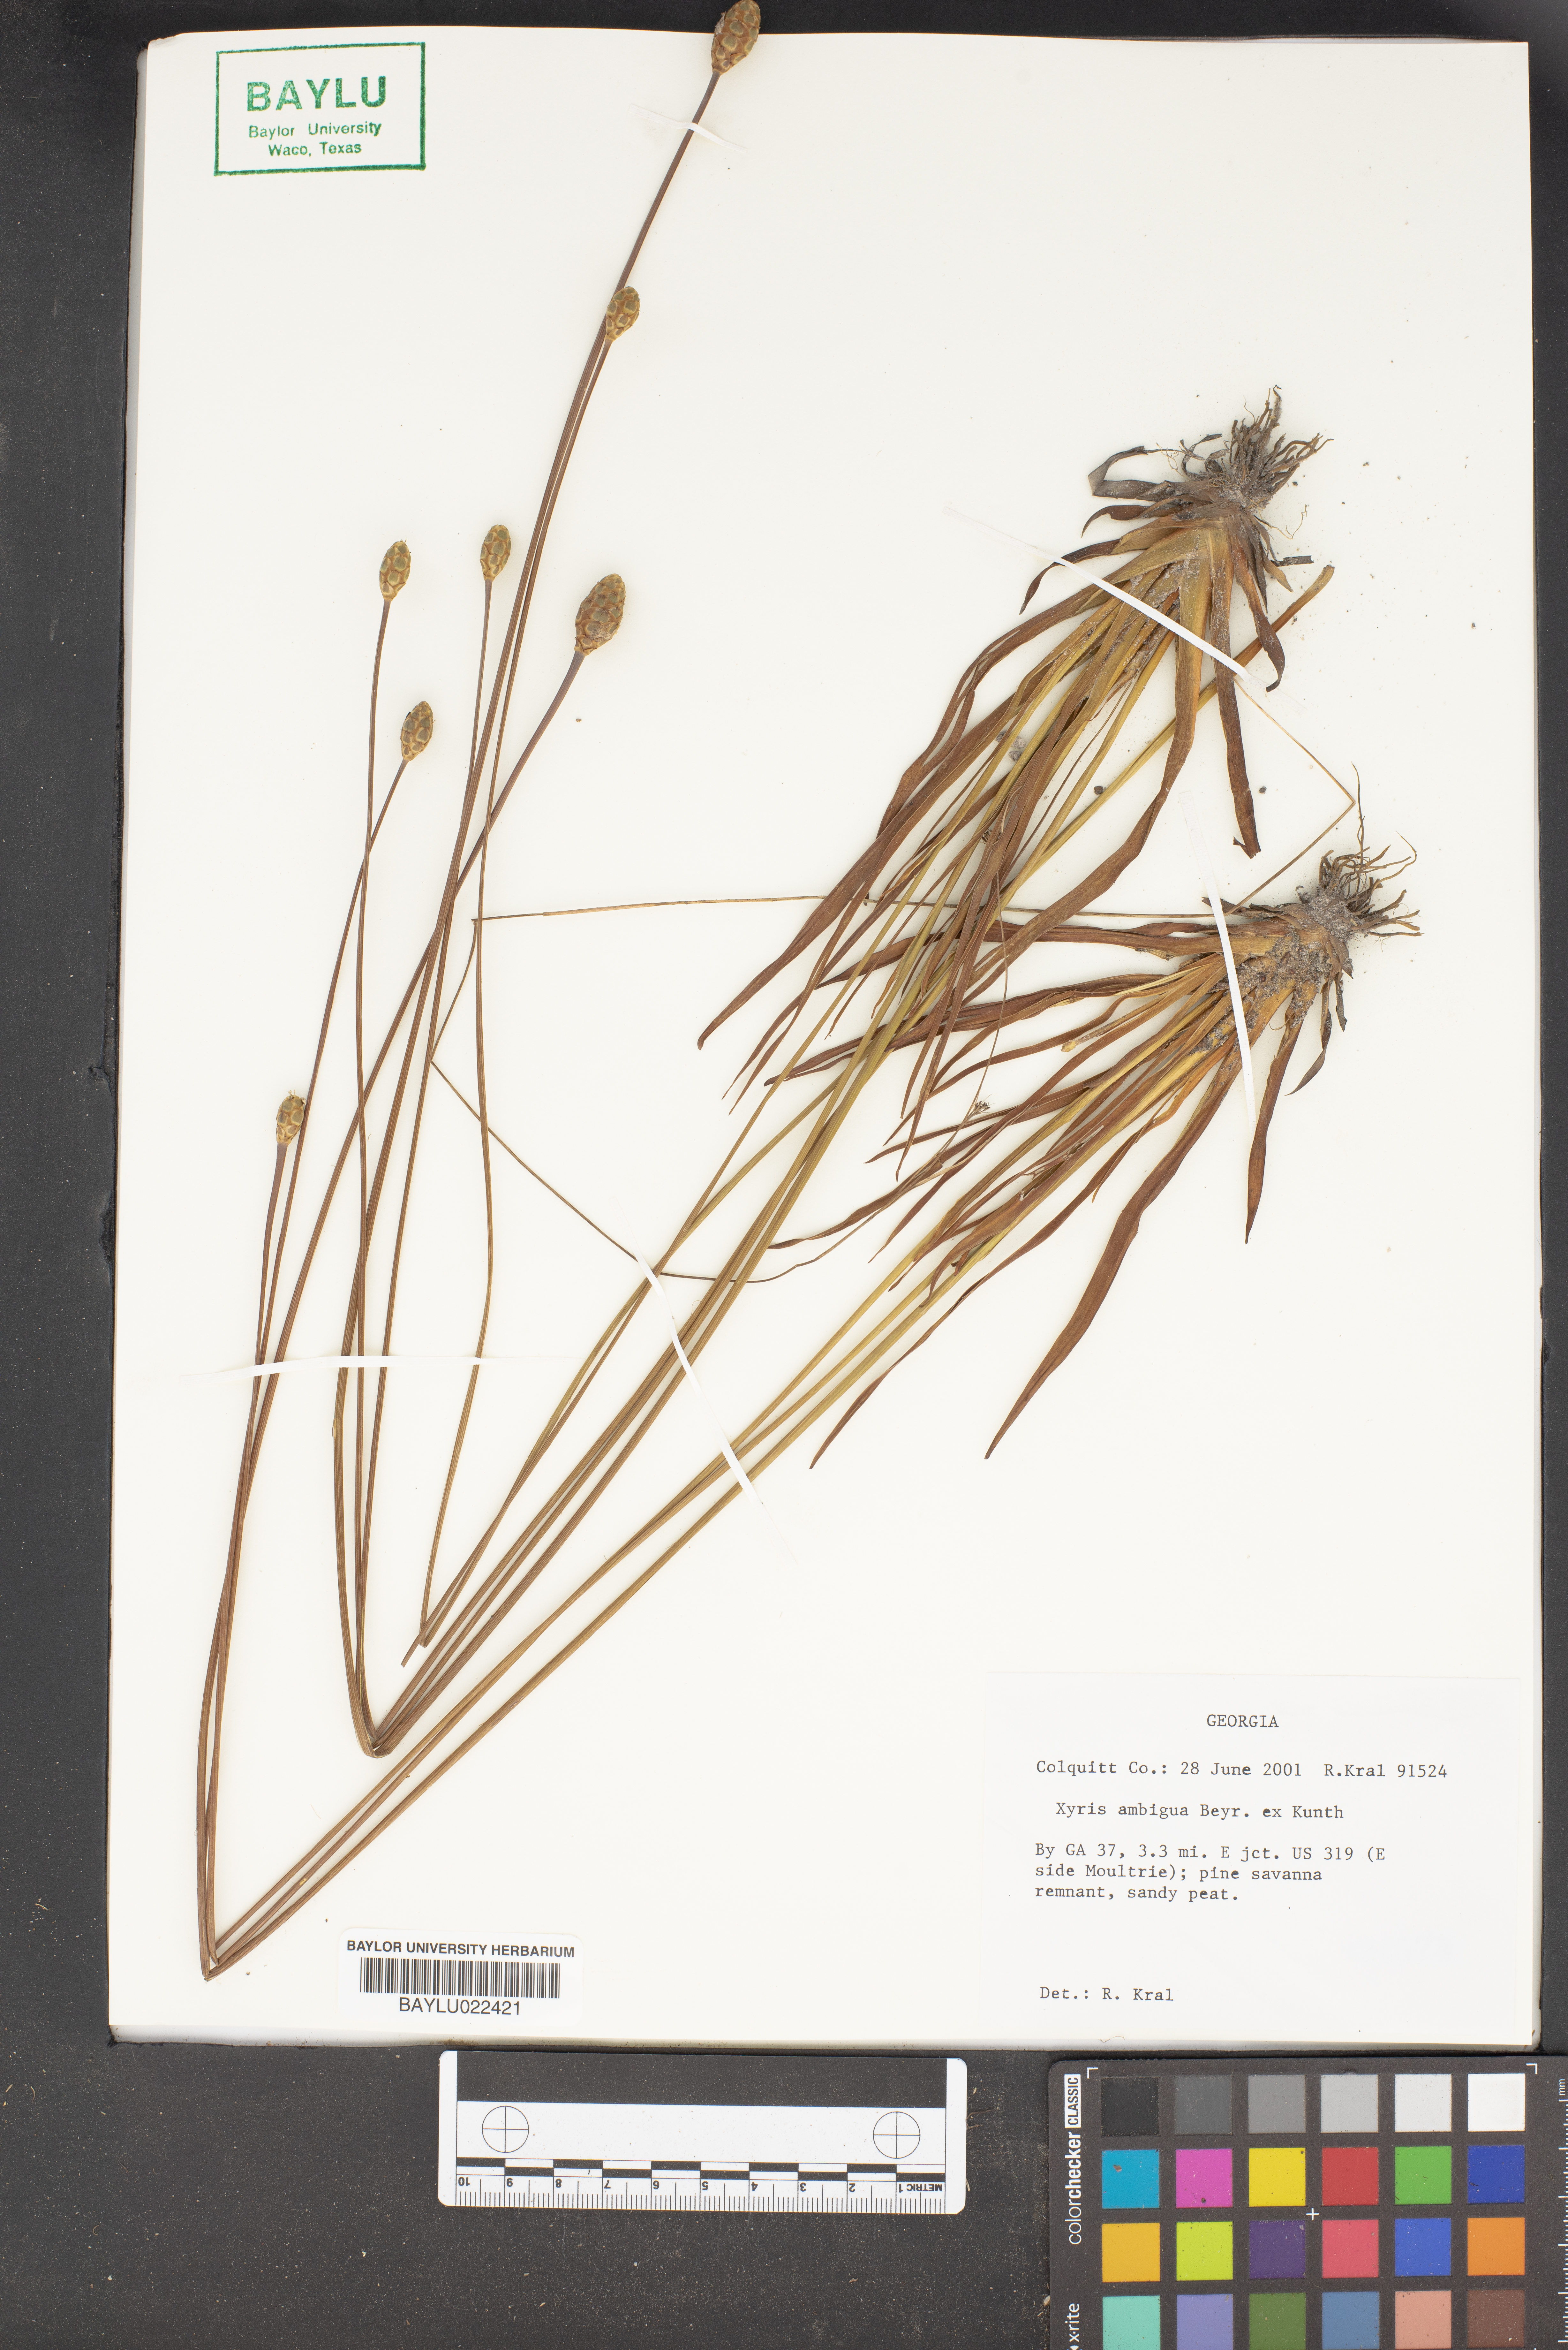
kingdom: Plantae
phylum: Tracheophyta
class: Liliopsida
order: Poales
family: Xyridaceae
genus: Xyris
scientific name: Xyris ambigua
